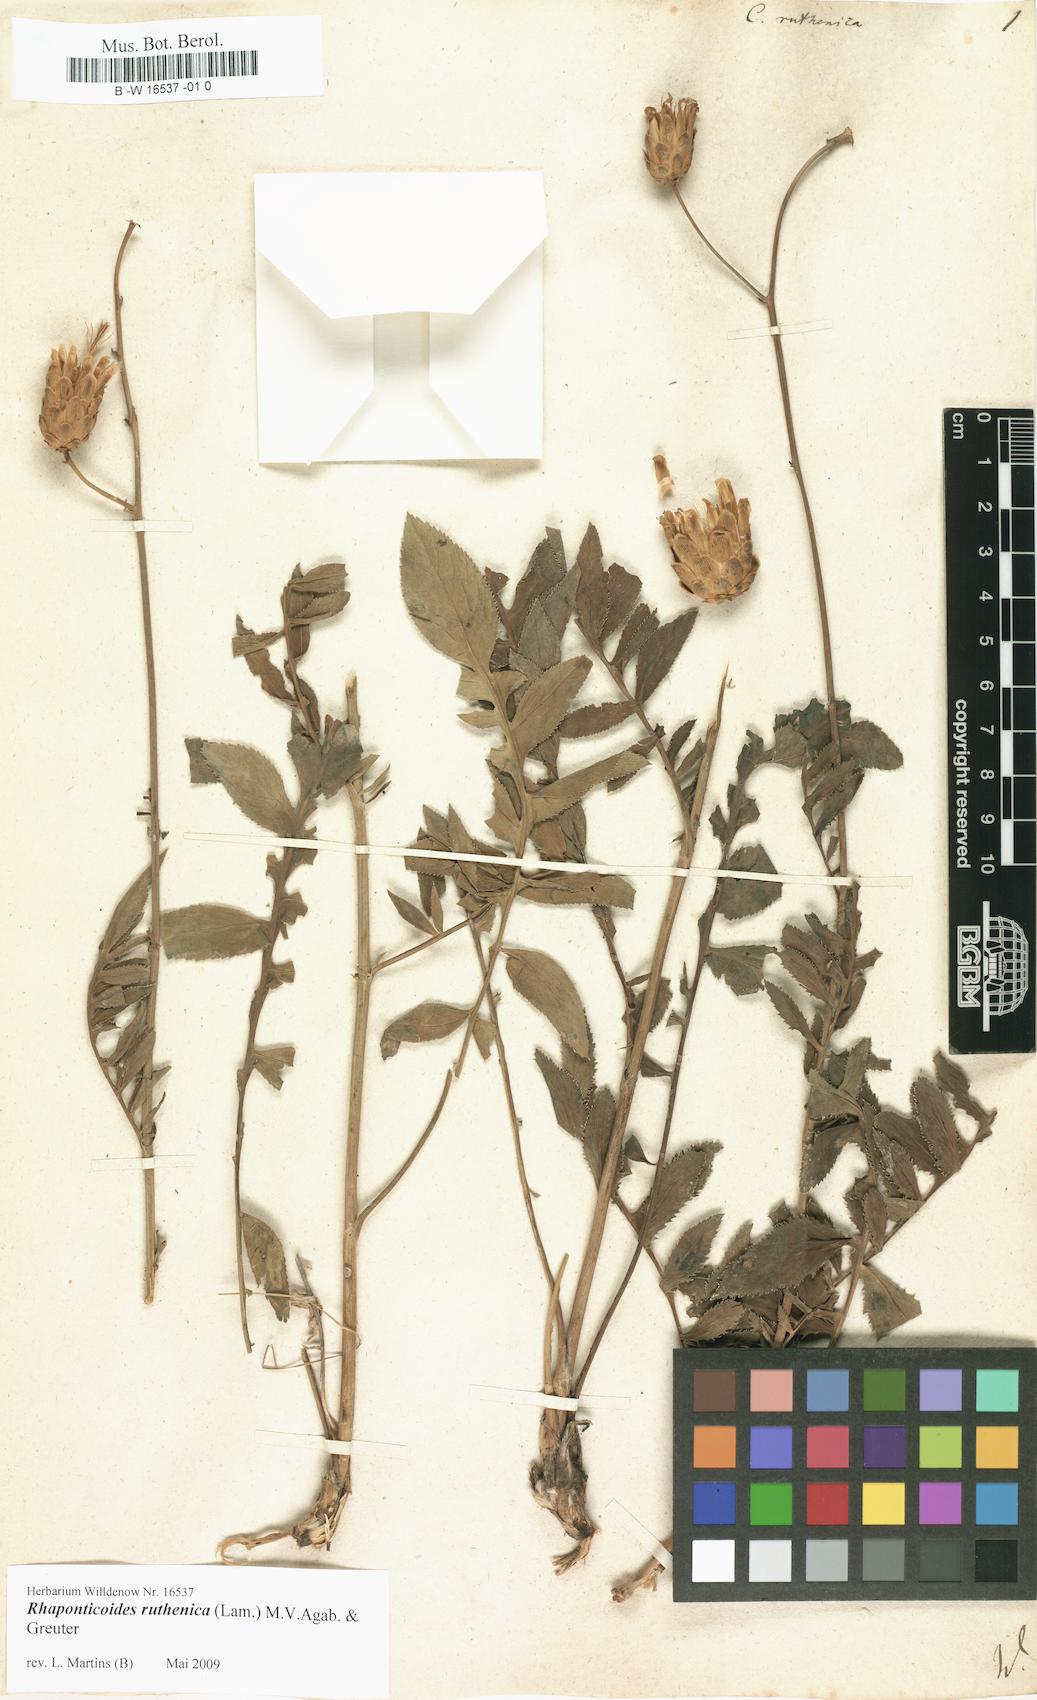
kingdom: Plantae
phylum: Tracheophyta
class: Magnoliopsida
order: Asterales
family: Asteraceae
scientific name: Asteraceae
